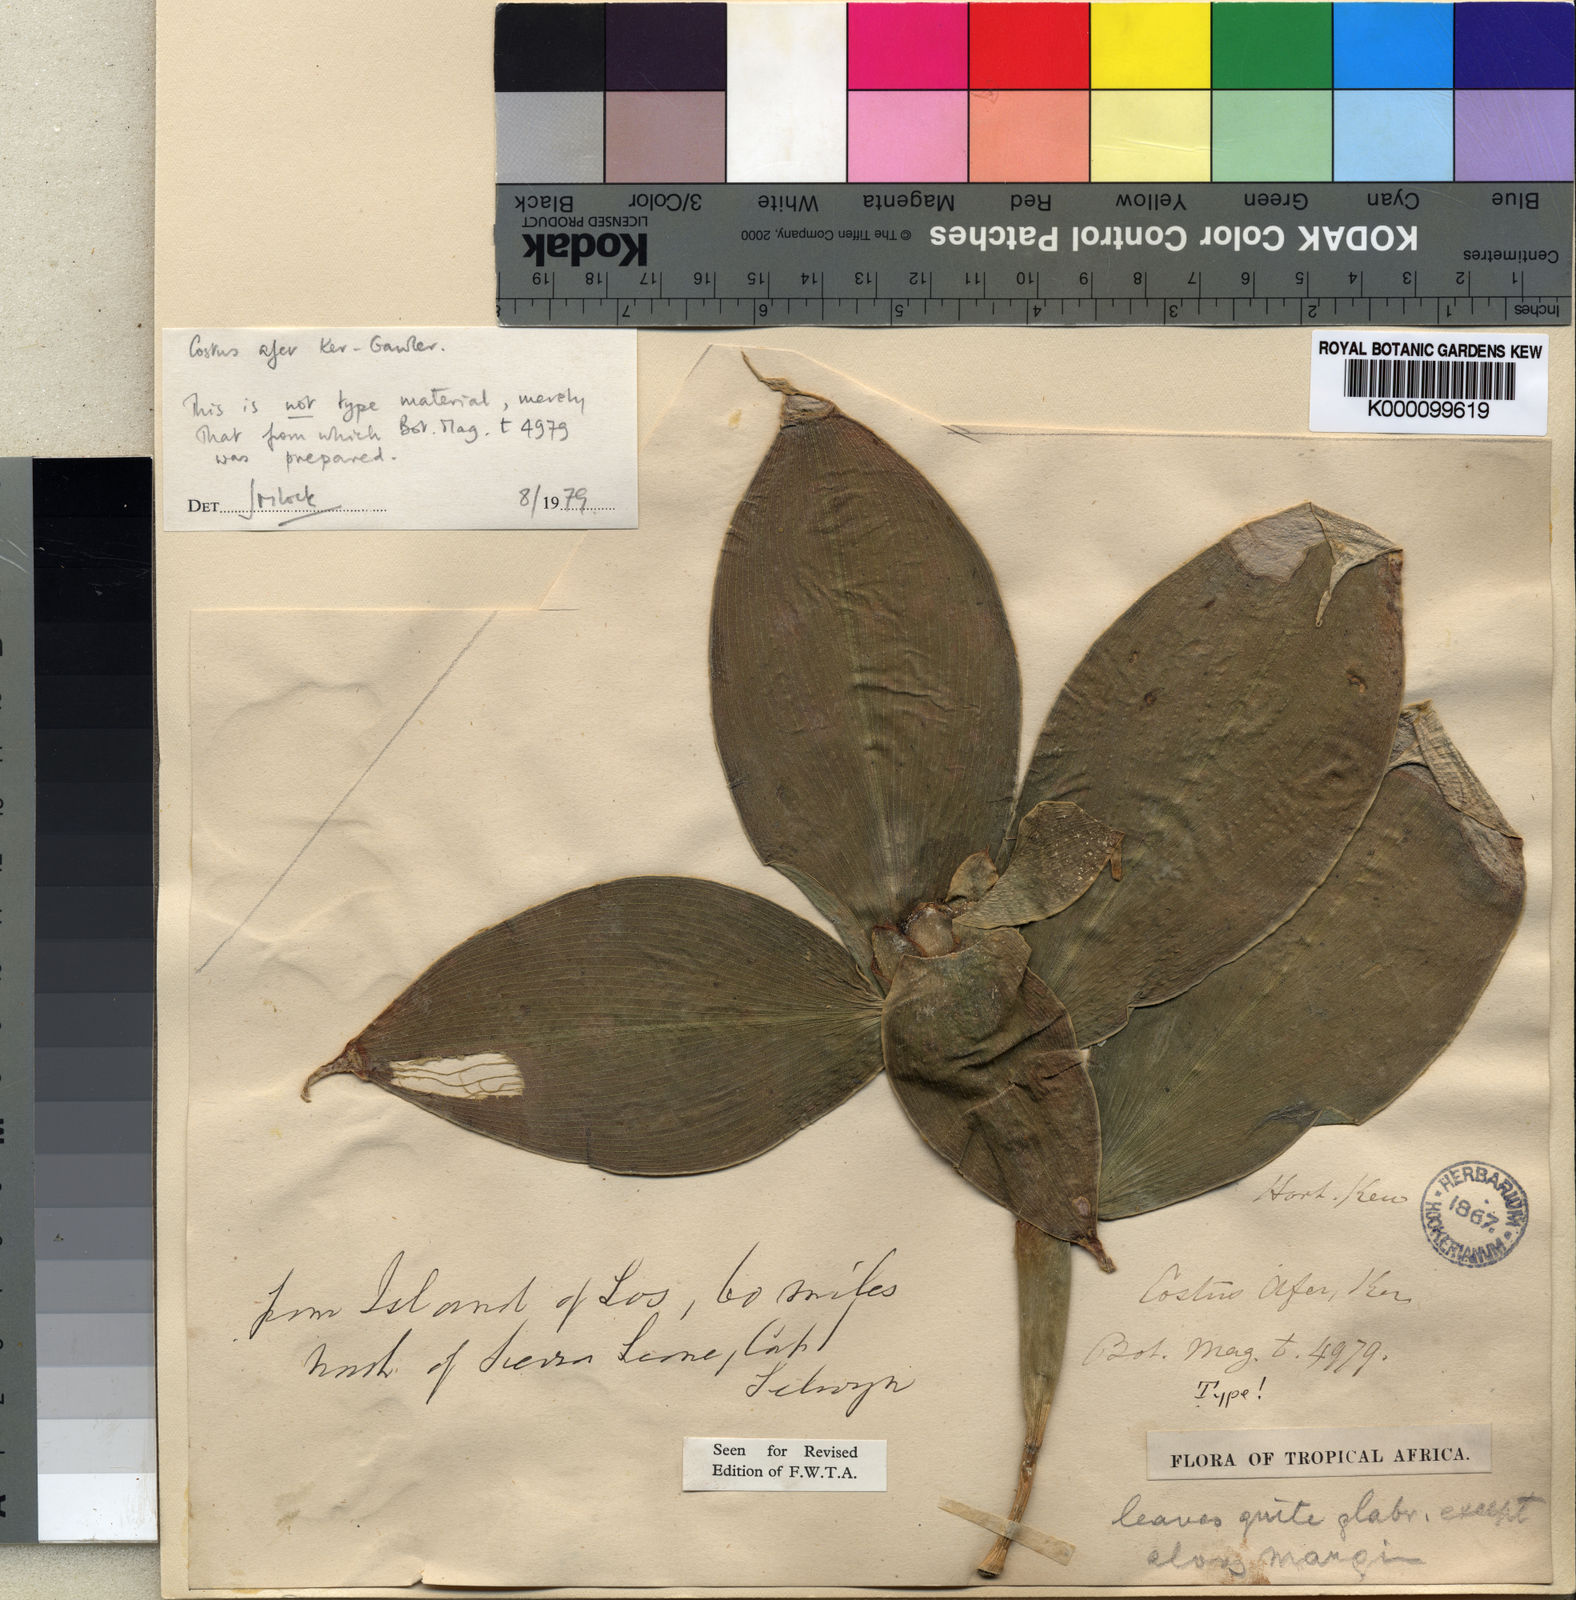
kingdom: Plantae
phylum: Tracheophyta
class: Liliopsida
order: Zingiberales
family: Costaceae
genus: Costus
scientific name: Costus afer
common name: Spiral-ginger
